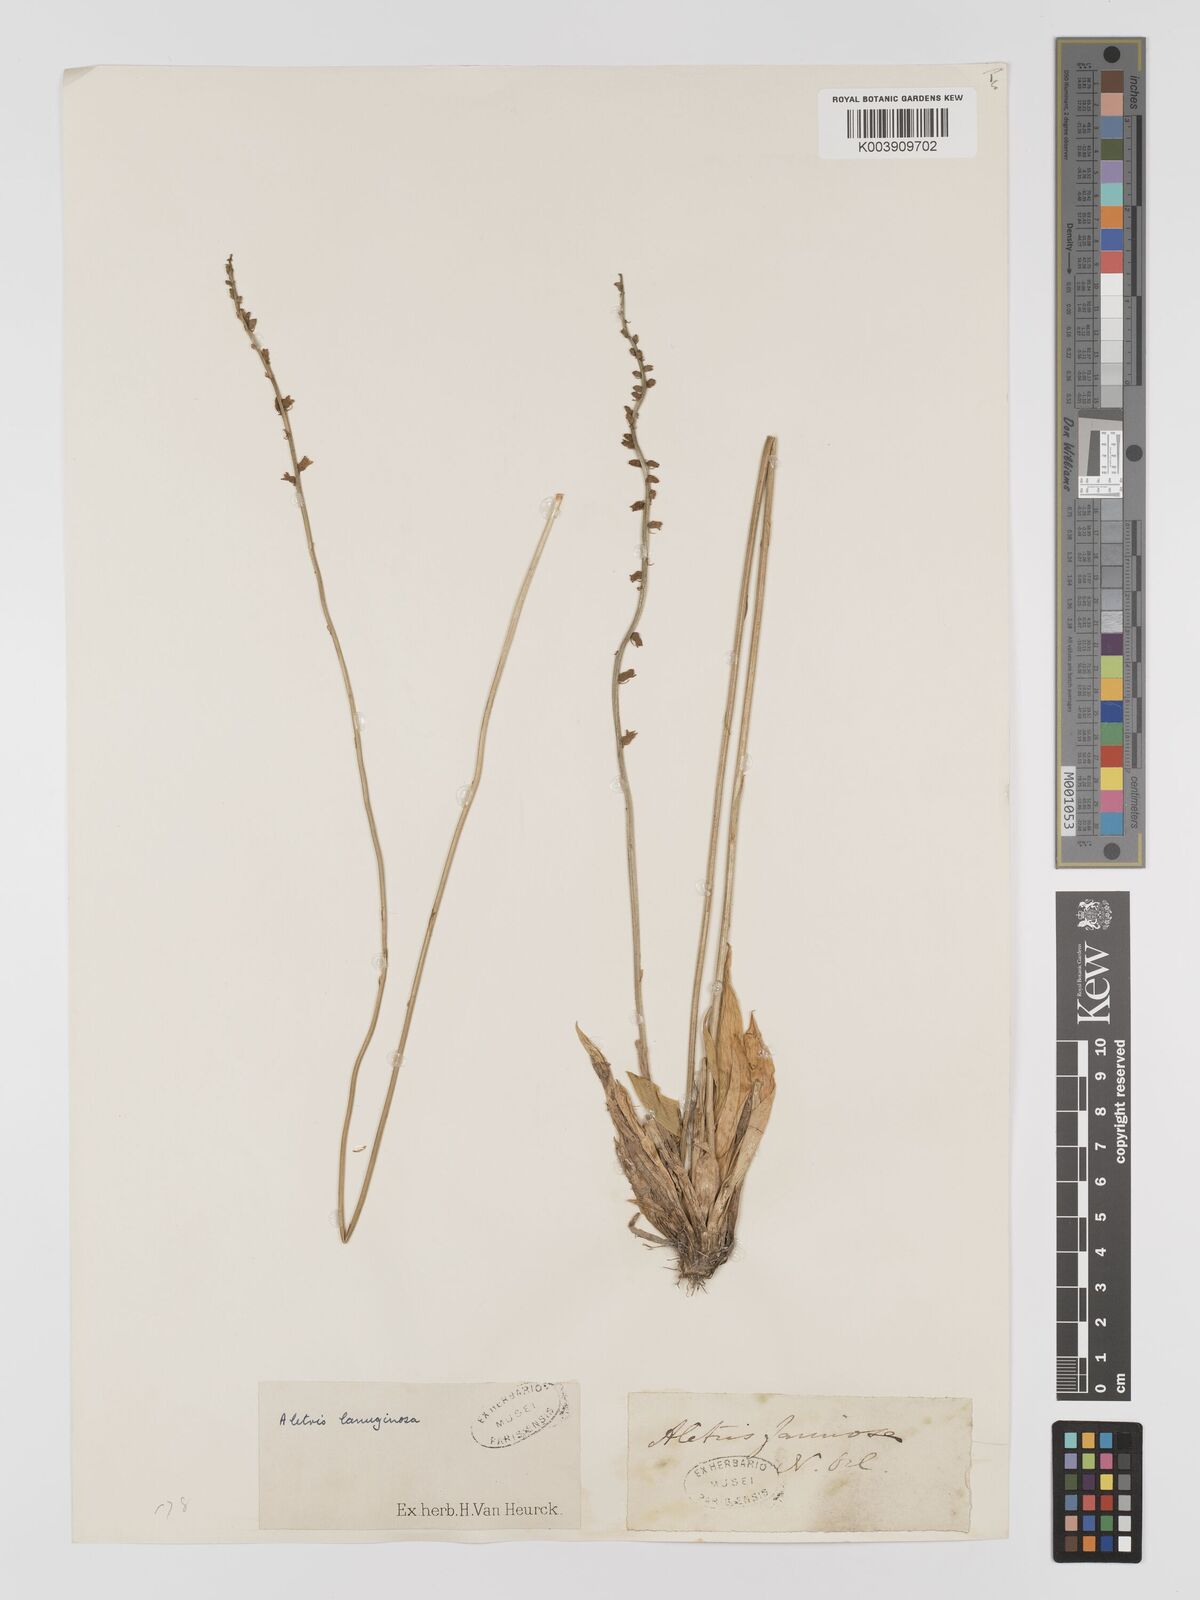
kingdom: Plantae
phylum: Tracheophyta
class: Liliopsida
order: Dioscoreales
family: Nartheciaceae
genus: Aletris
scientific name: Aletris pauciflora
